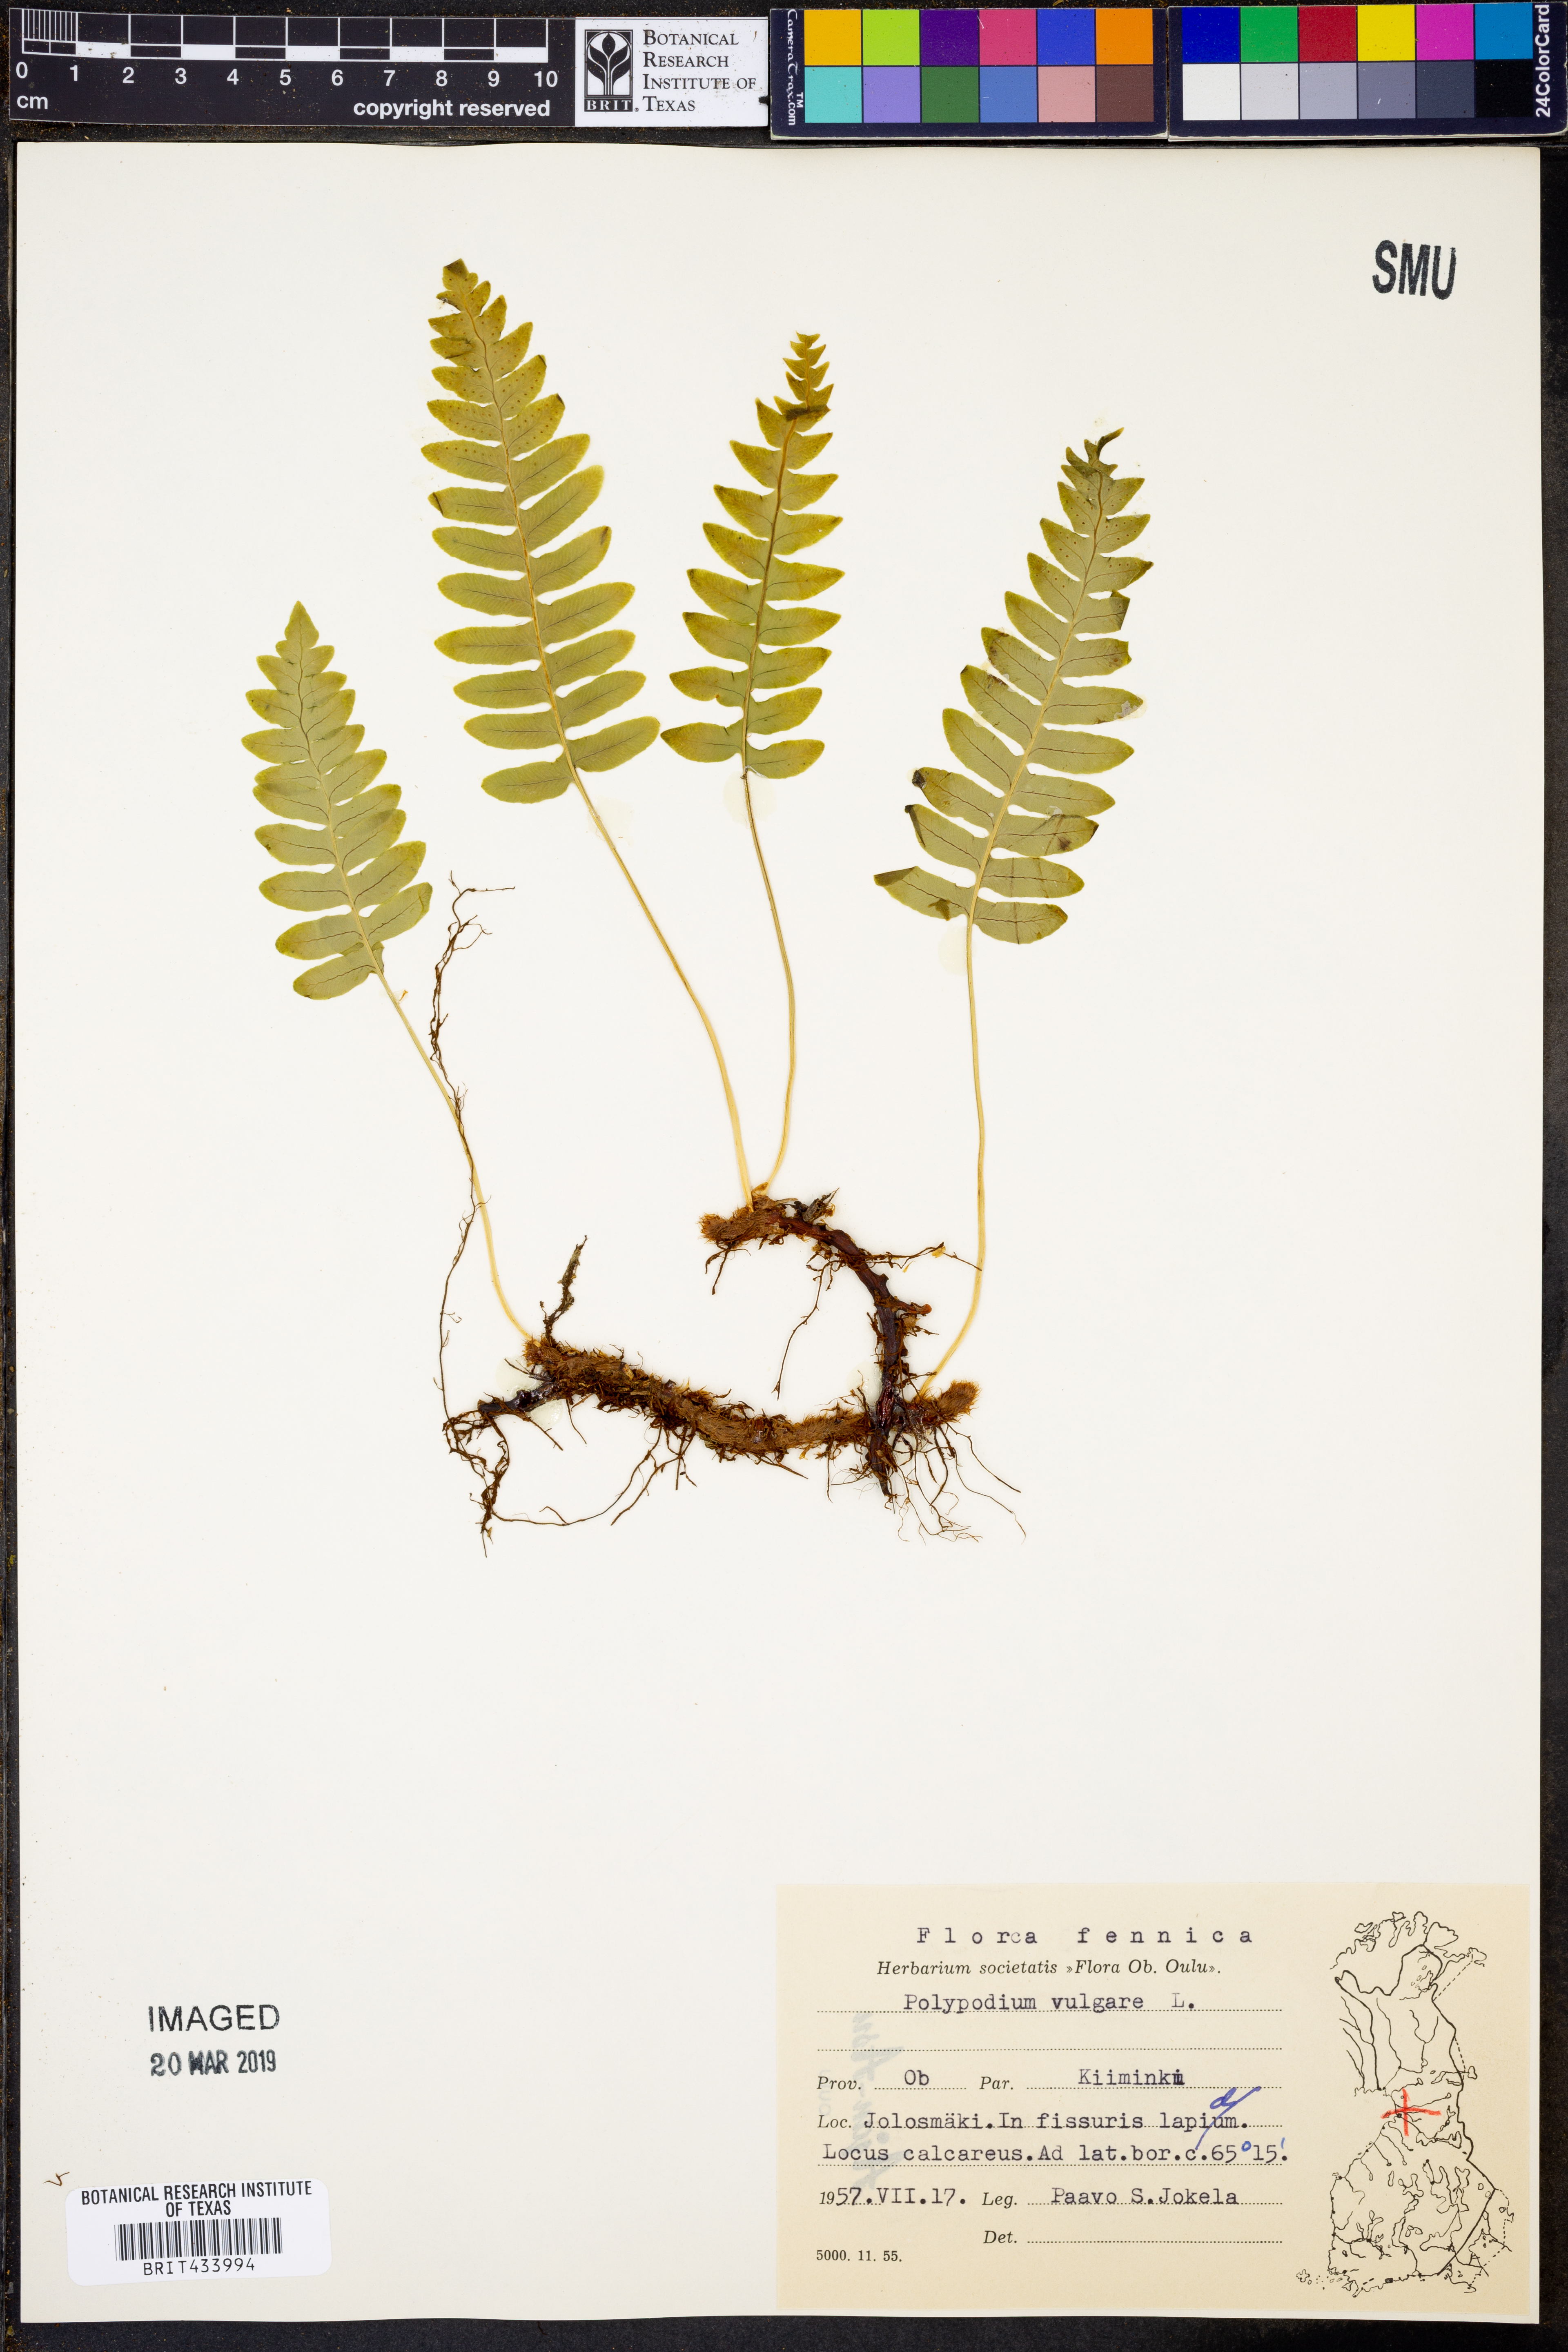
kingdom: Plantae
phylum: Tracheophyta
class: Polypodiopsida
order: Polypodiales
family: Polypodiaceae
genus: Polypodium
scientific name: Polypodium vulgare
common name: Common polypody
